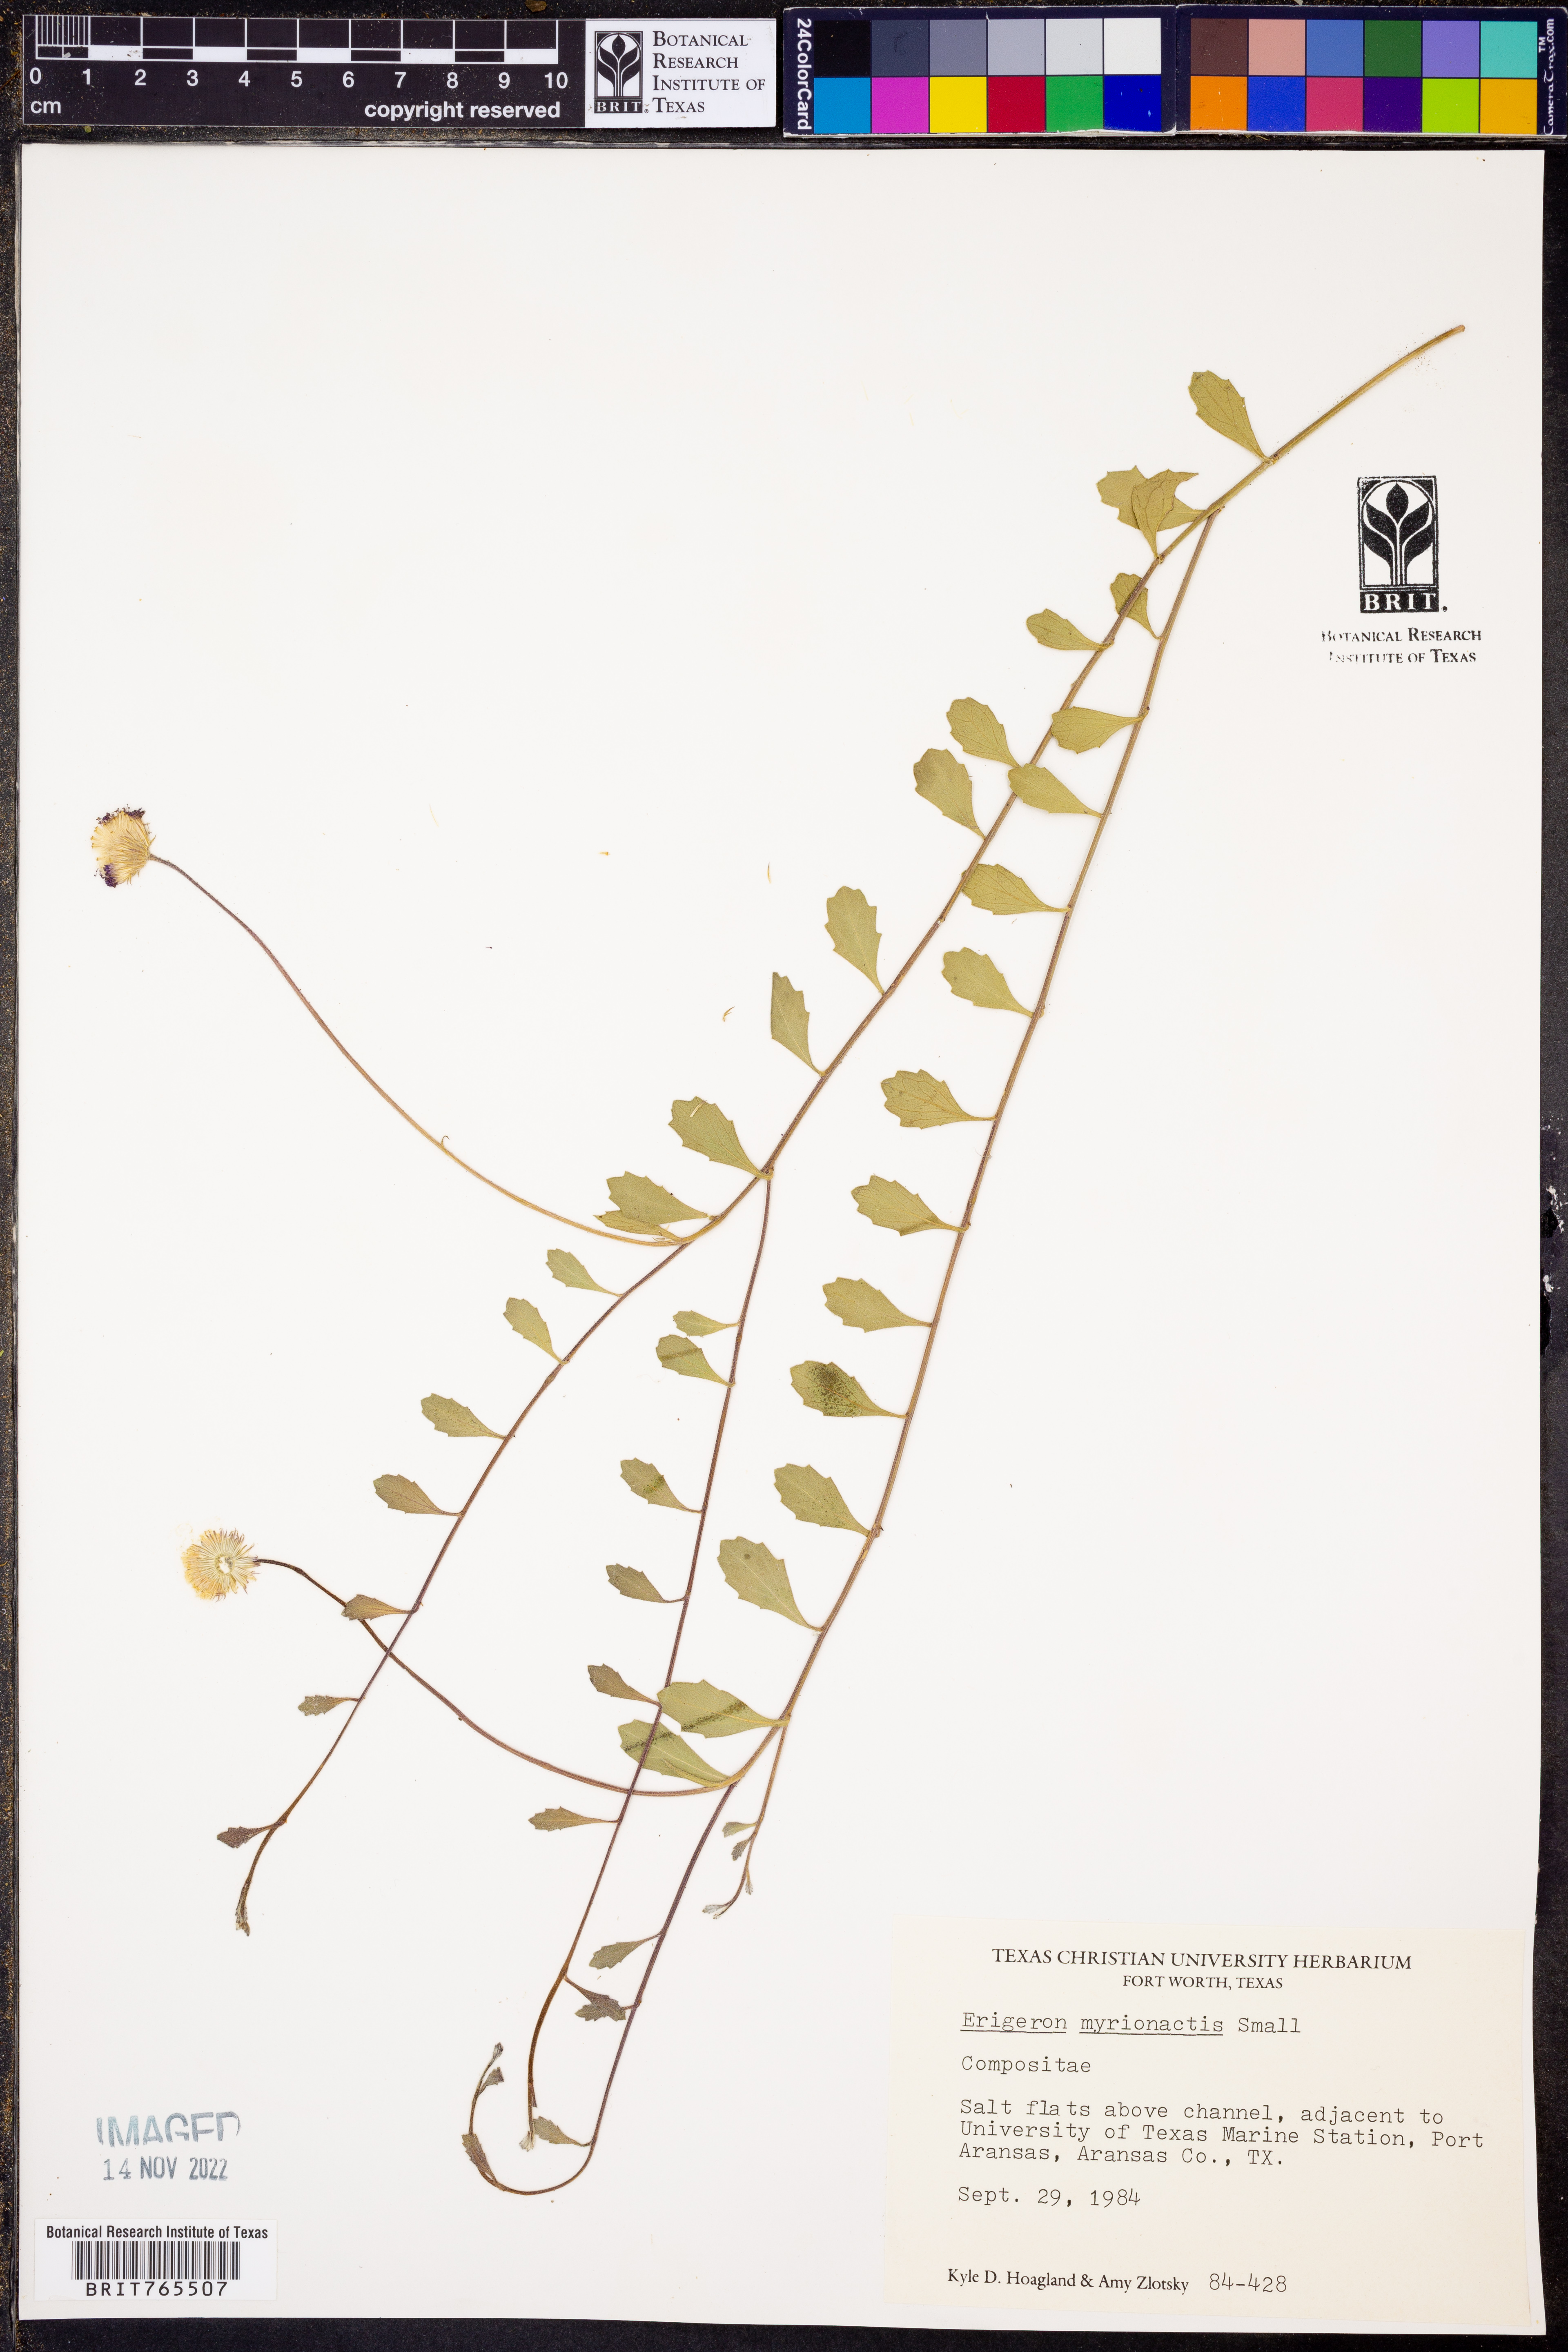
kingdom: Plantae
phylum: Tracheophyta
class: Magnoliopsida
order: Asterales
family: Asteraceae
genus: Erigeron
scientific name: Erigeron procumbens
